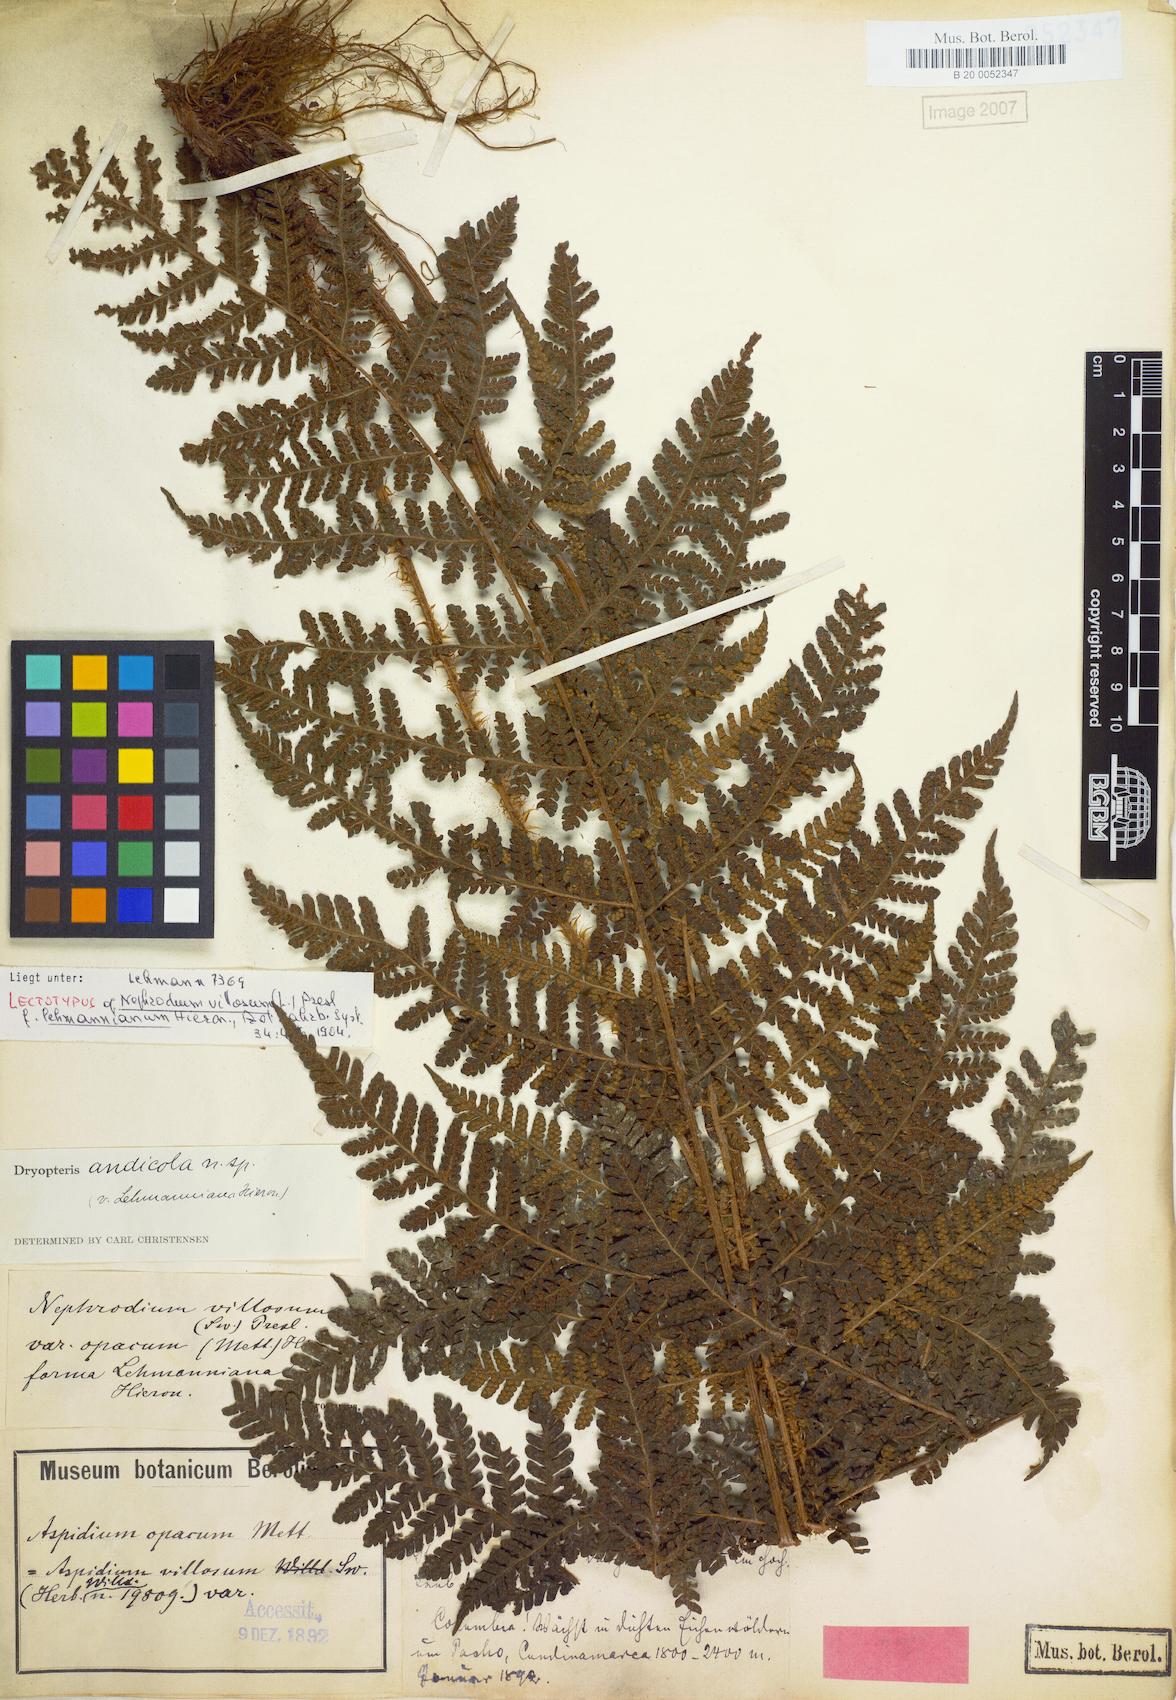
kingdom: Plantae
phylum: Tracheophyta
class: Polypodiopsida
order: Polypodiales
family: Dryopteridaceae
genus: Megalastrum
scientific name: Megalastrum andicola
